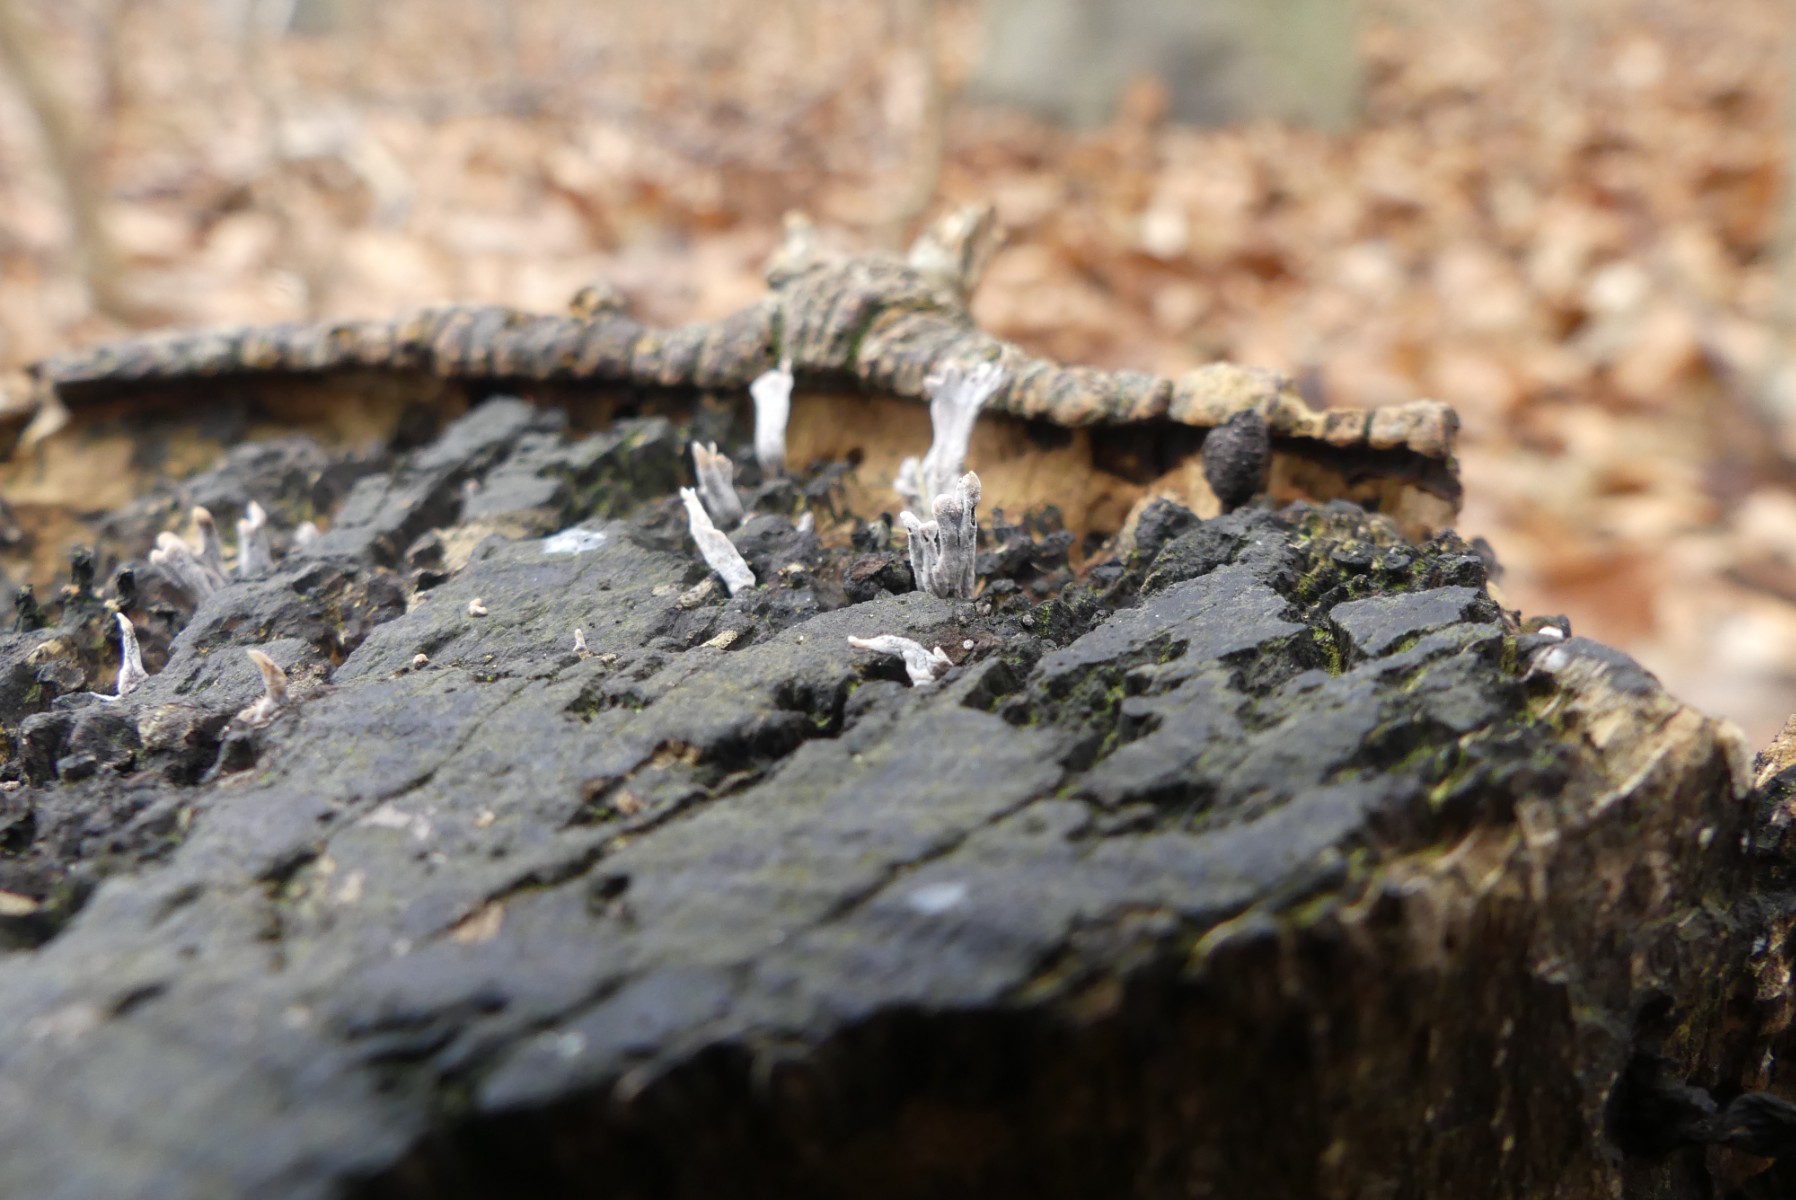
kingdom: Fungi
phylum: Ascomycota
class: Sordariomycetes
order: Xylariales
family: Xylariaceae
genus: Xylaria
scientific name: Xylaria hypoxylon
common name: grenet stødsvamp
